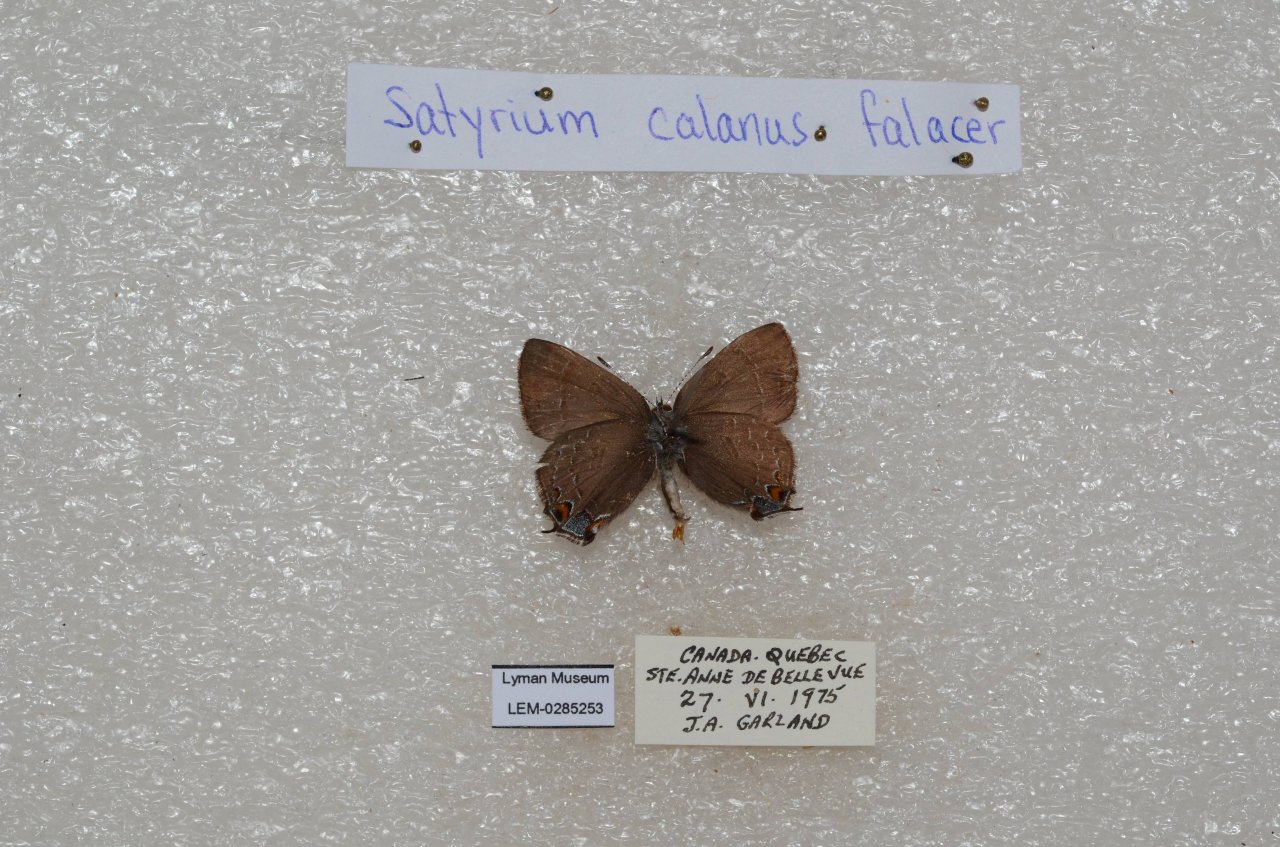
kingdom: Animalia
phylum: Arthropoda
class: Insecta
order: Lepidoptera
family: Lycaenidae
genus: Satyrium
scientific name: Satyrium calanus
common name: Banded Hairstreak
